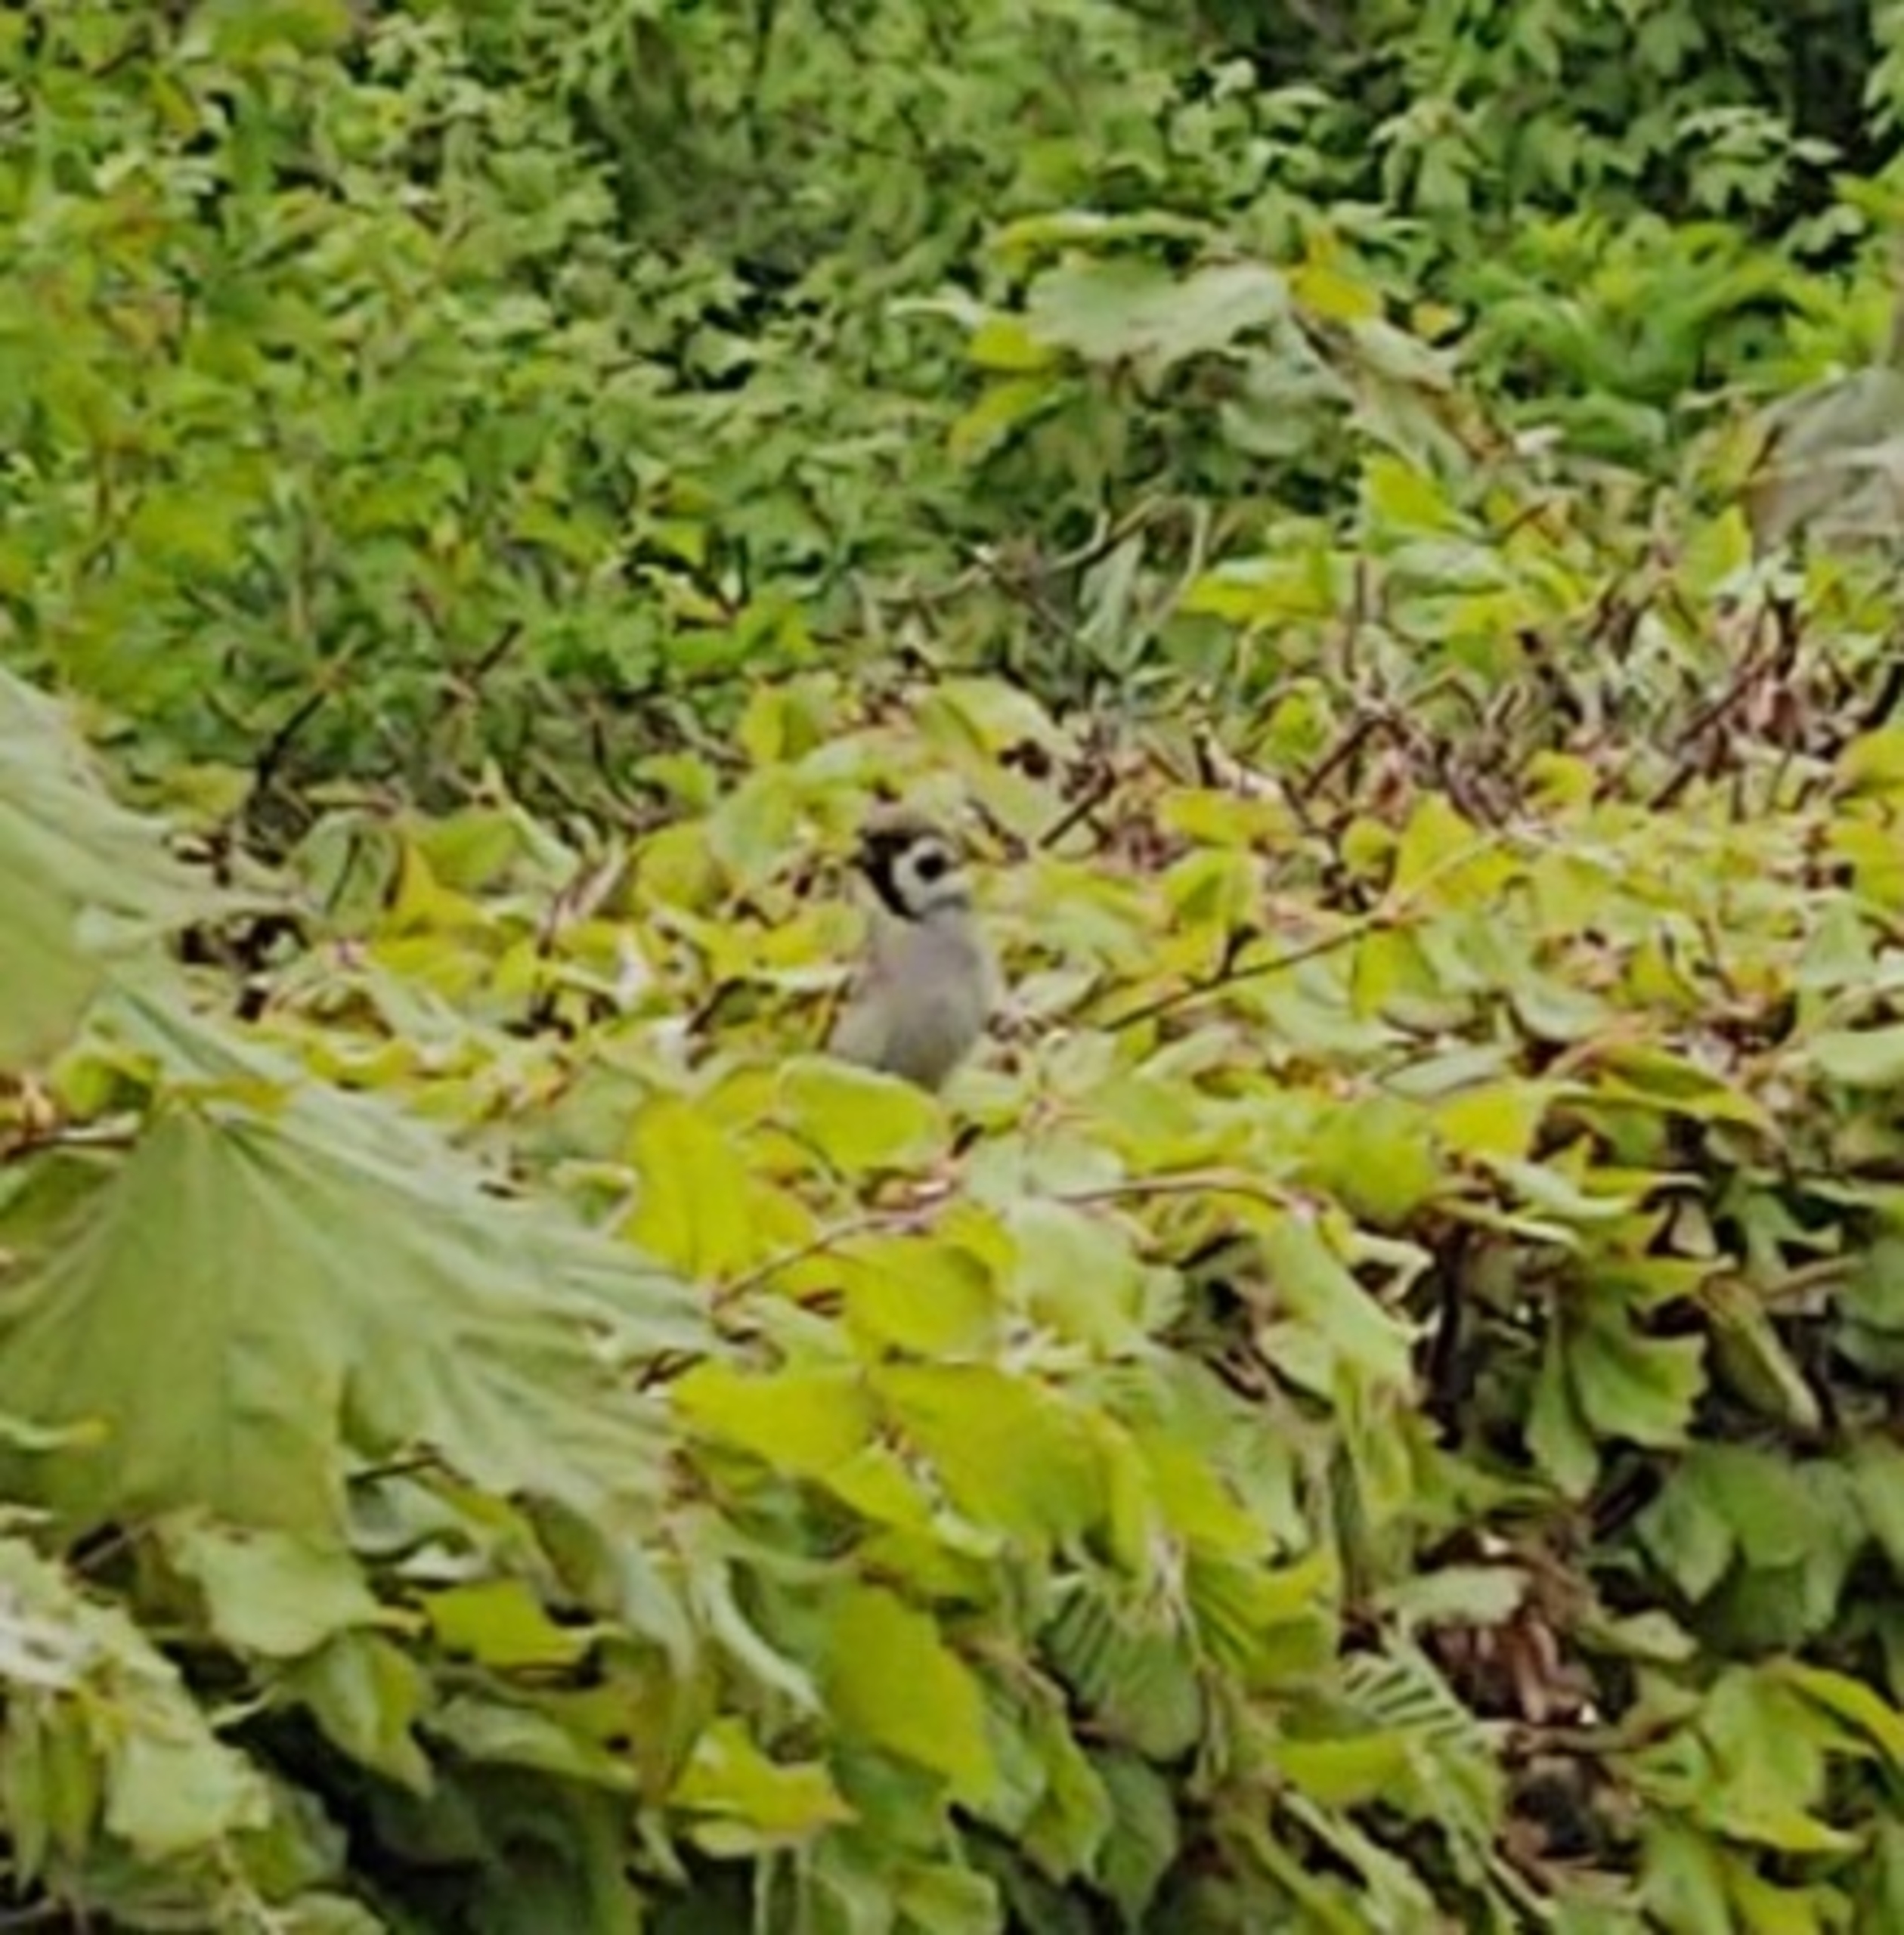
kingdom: Animalia
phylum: Chordata
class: Aves
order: Passeriformes
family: Passeridae
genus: Passer
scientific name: Passer montanus
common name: Skovspurv
